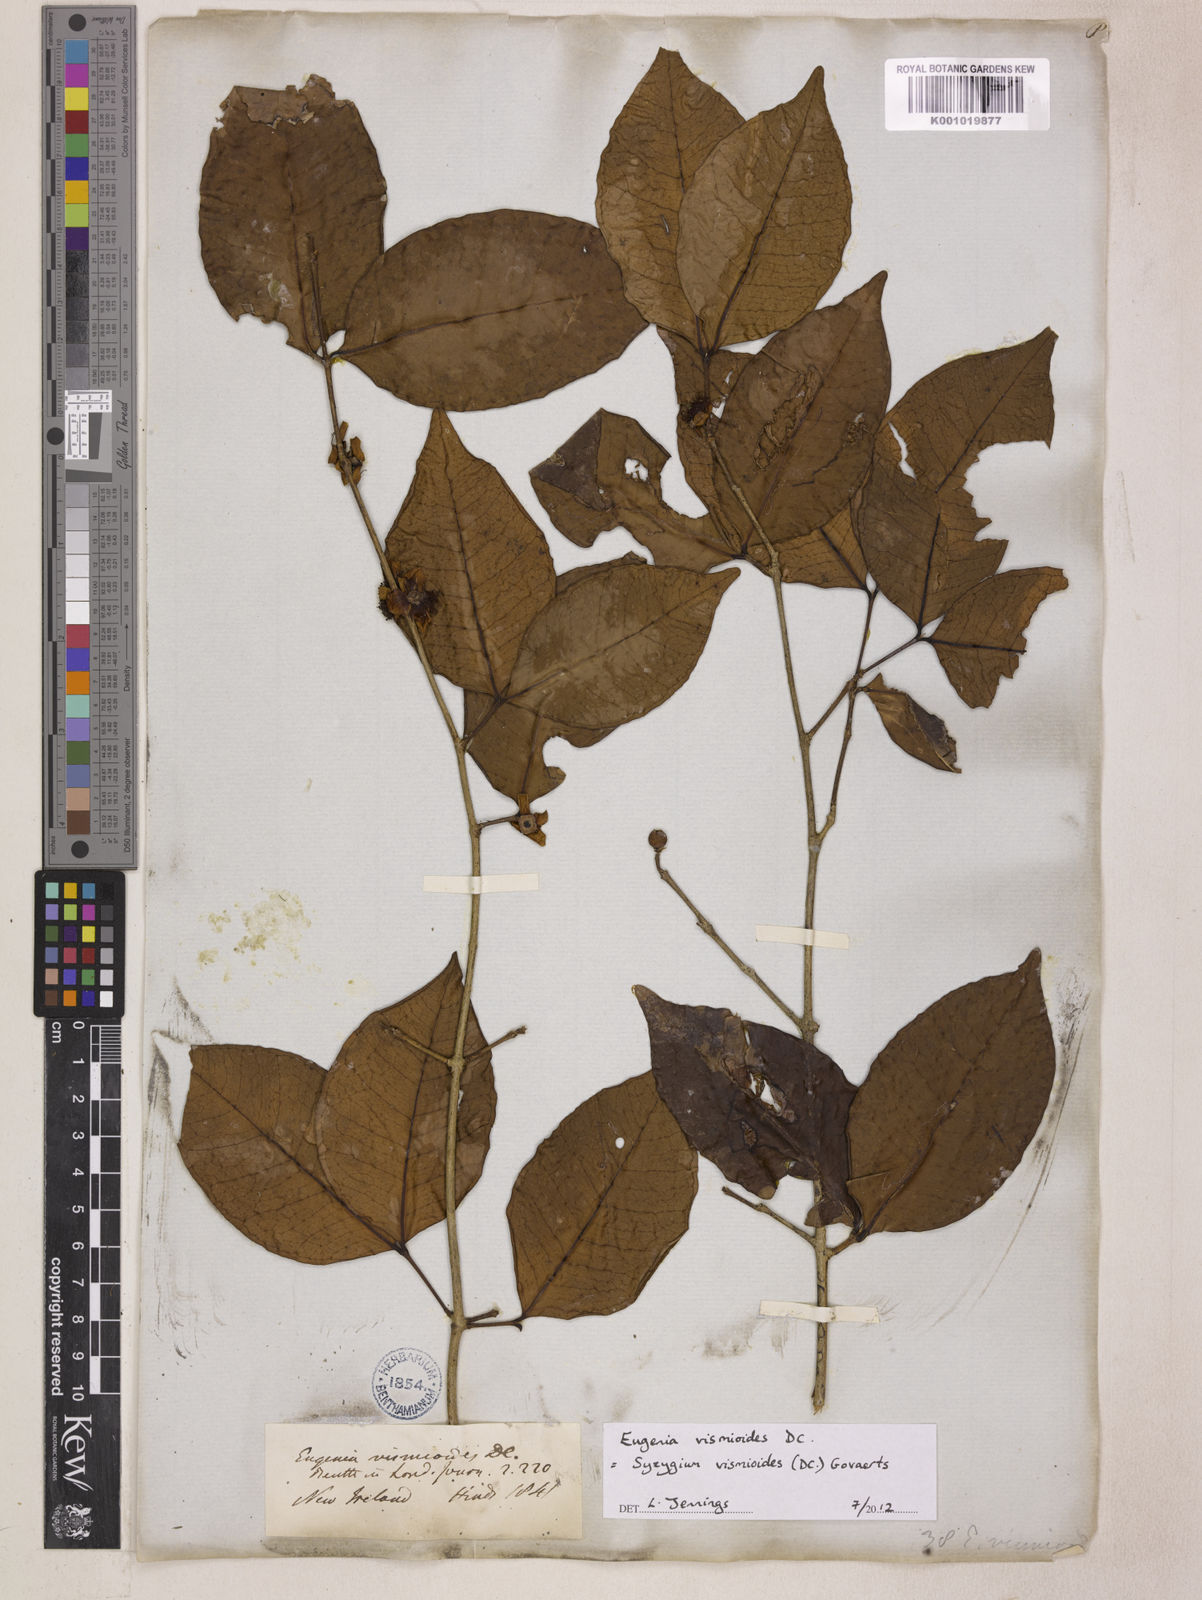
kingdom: Plantae
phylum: Tracheophyta
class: Magnoliopsida
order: Myrtales
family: Myrtaceae
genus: Syzygium
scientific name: Syzygium vismioides
